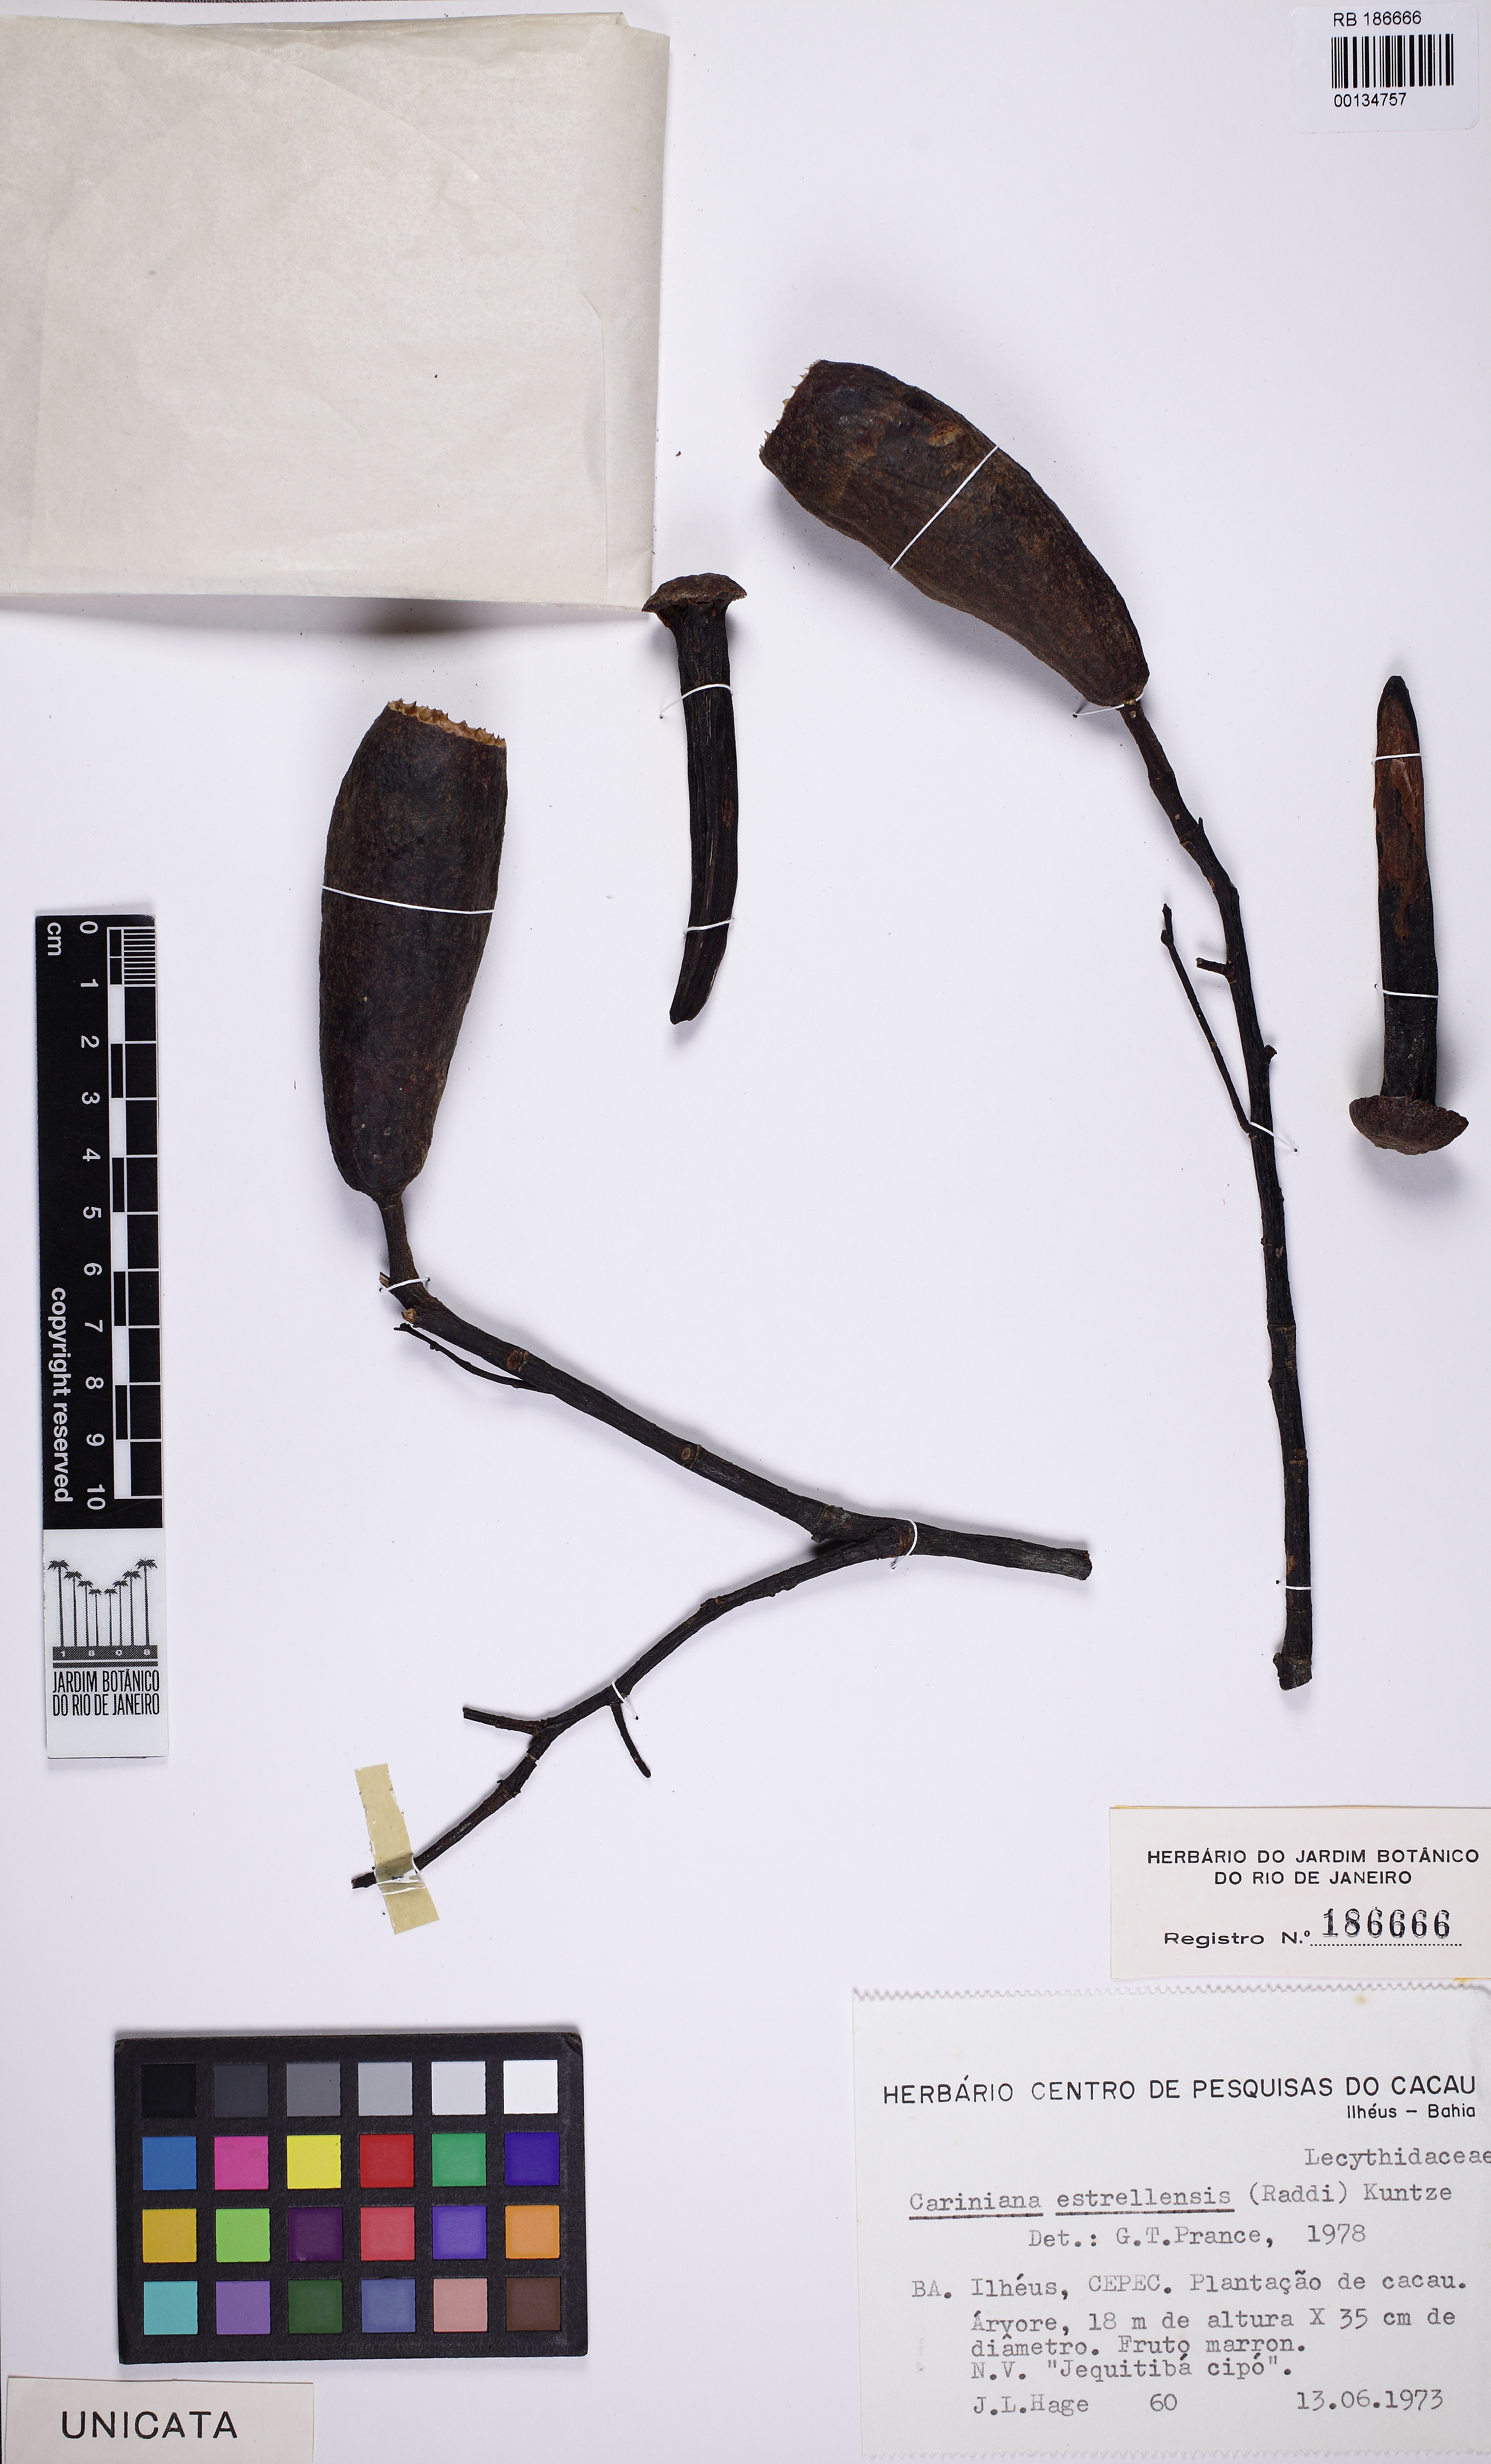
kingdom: Plantae
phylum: Tracheophyta
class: Magnoliopsida
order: Ericales
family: Lecythidaceae
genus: Cariniana
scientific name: Cariniana estrellensis
